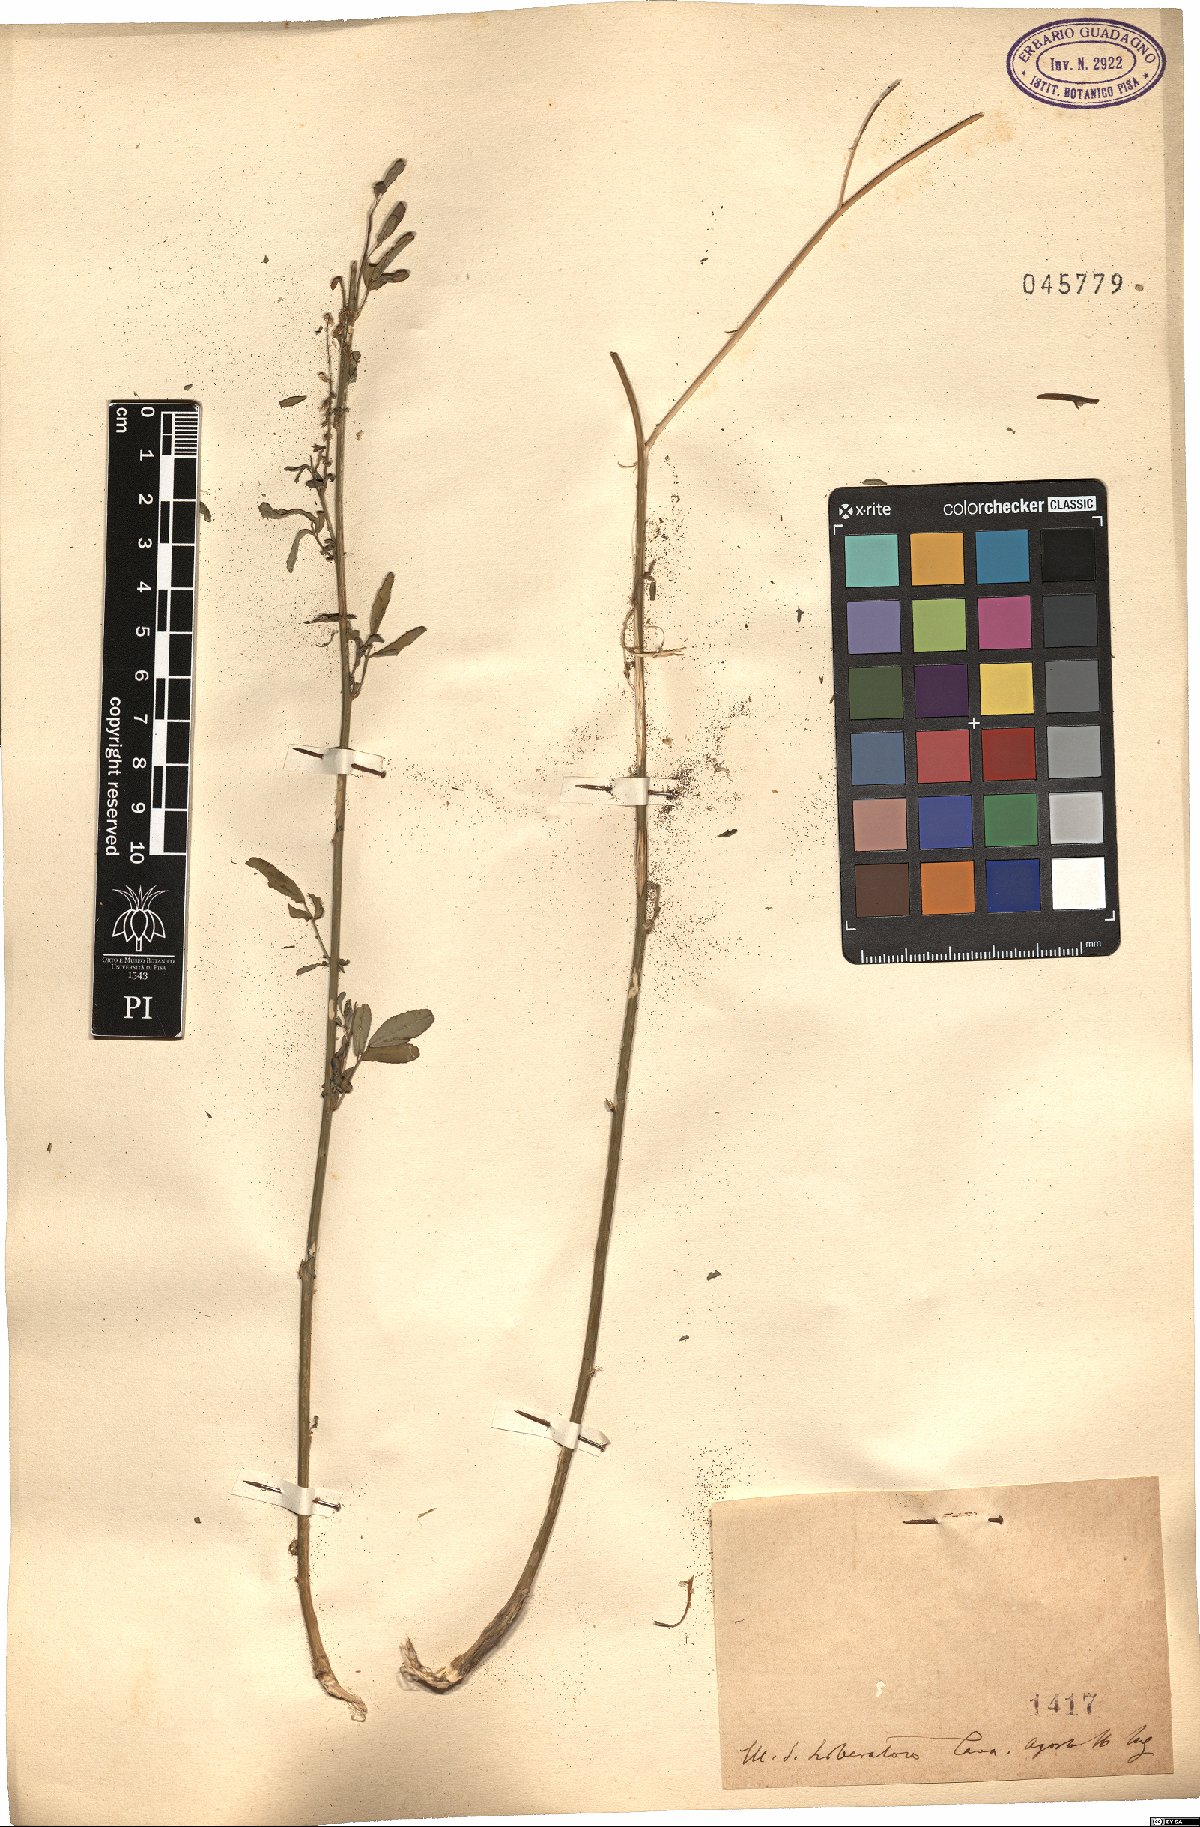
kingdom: Plantae
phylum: Tracheophyta
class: Magnoliopsida
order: Fabales
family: Fabaceae
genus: Melilotus
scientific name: Melilotus
